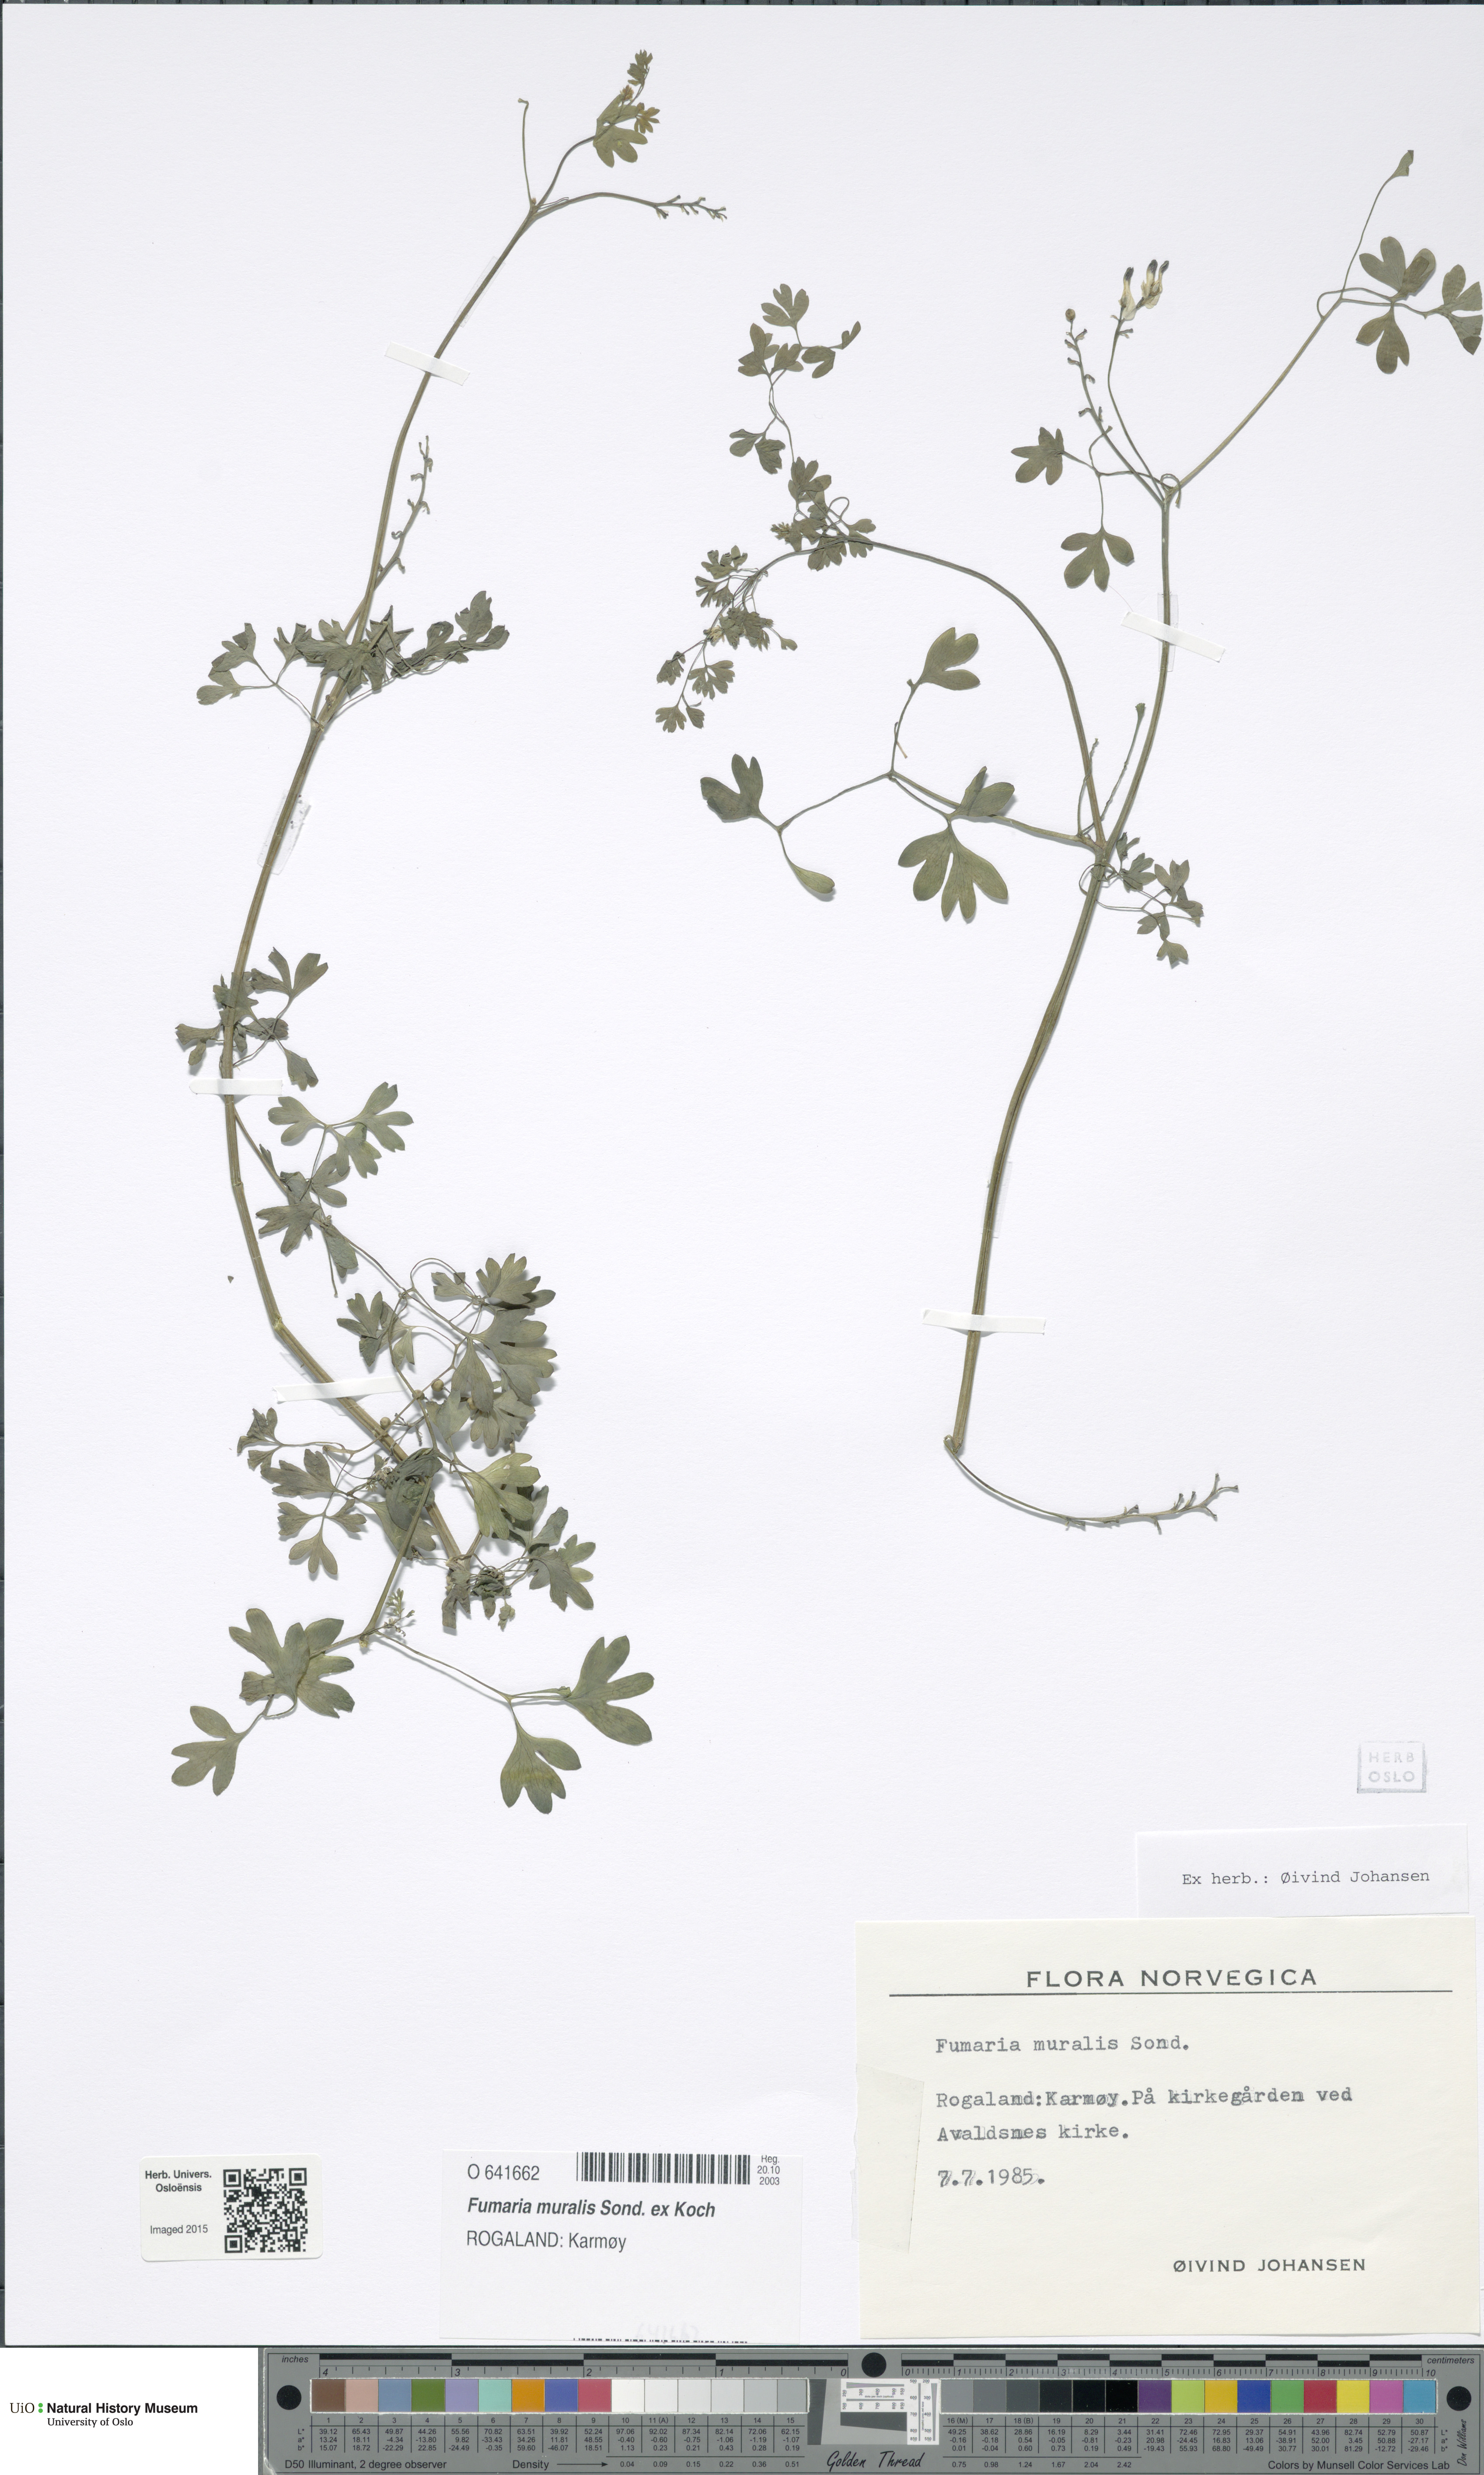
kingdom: Plantae
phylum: Tracheophyta
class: Magnoliopsida
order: Ranunculales
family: Papaveraceae
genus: Fumaria
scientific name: Fumaria muralis
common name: Common ramping-fumitory
